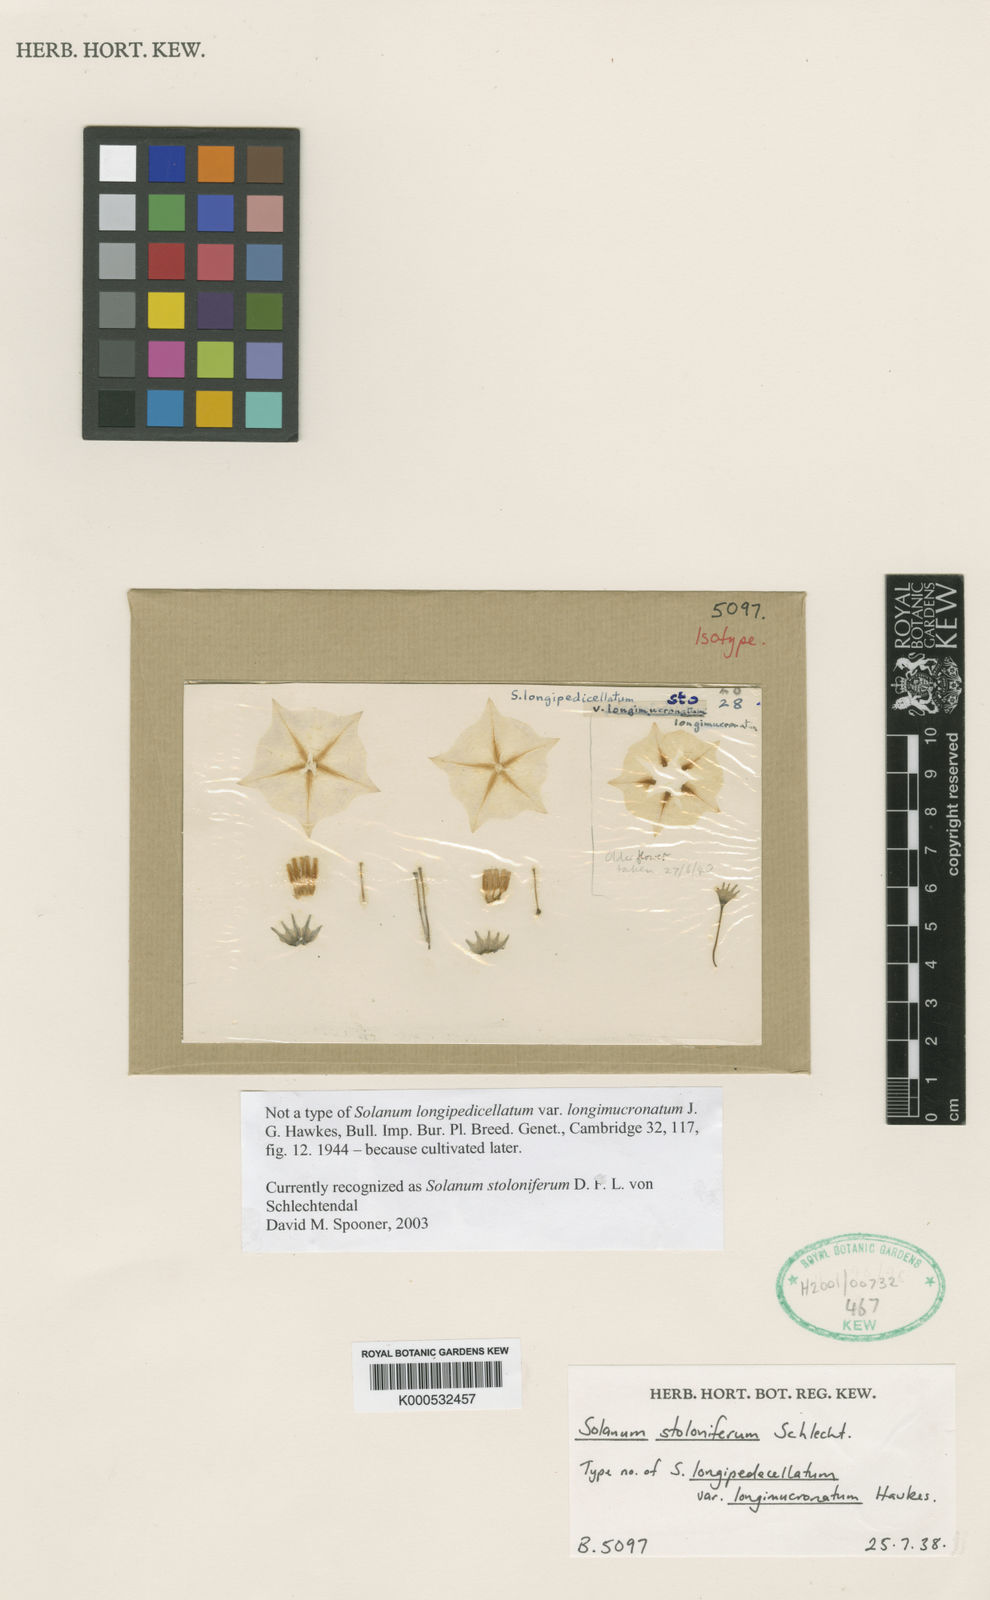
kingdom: Plantae
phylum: Tracheophyta
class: Magnoliopsida
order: Solanales
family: Solanaceae
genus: Solanum
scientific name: Solanum
